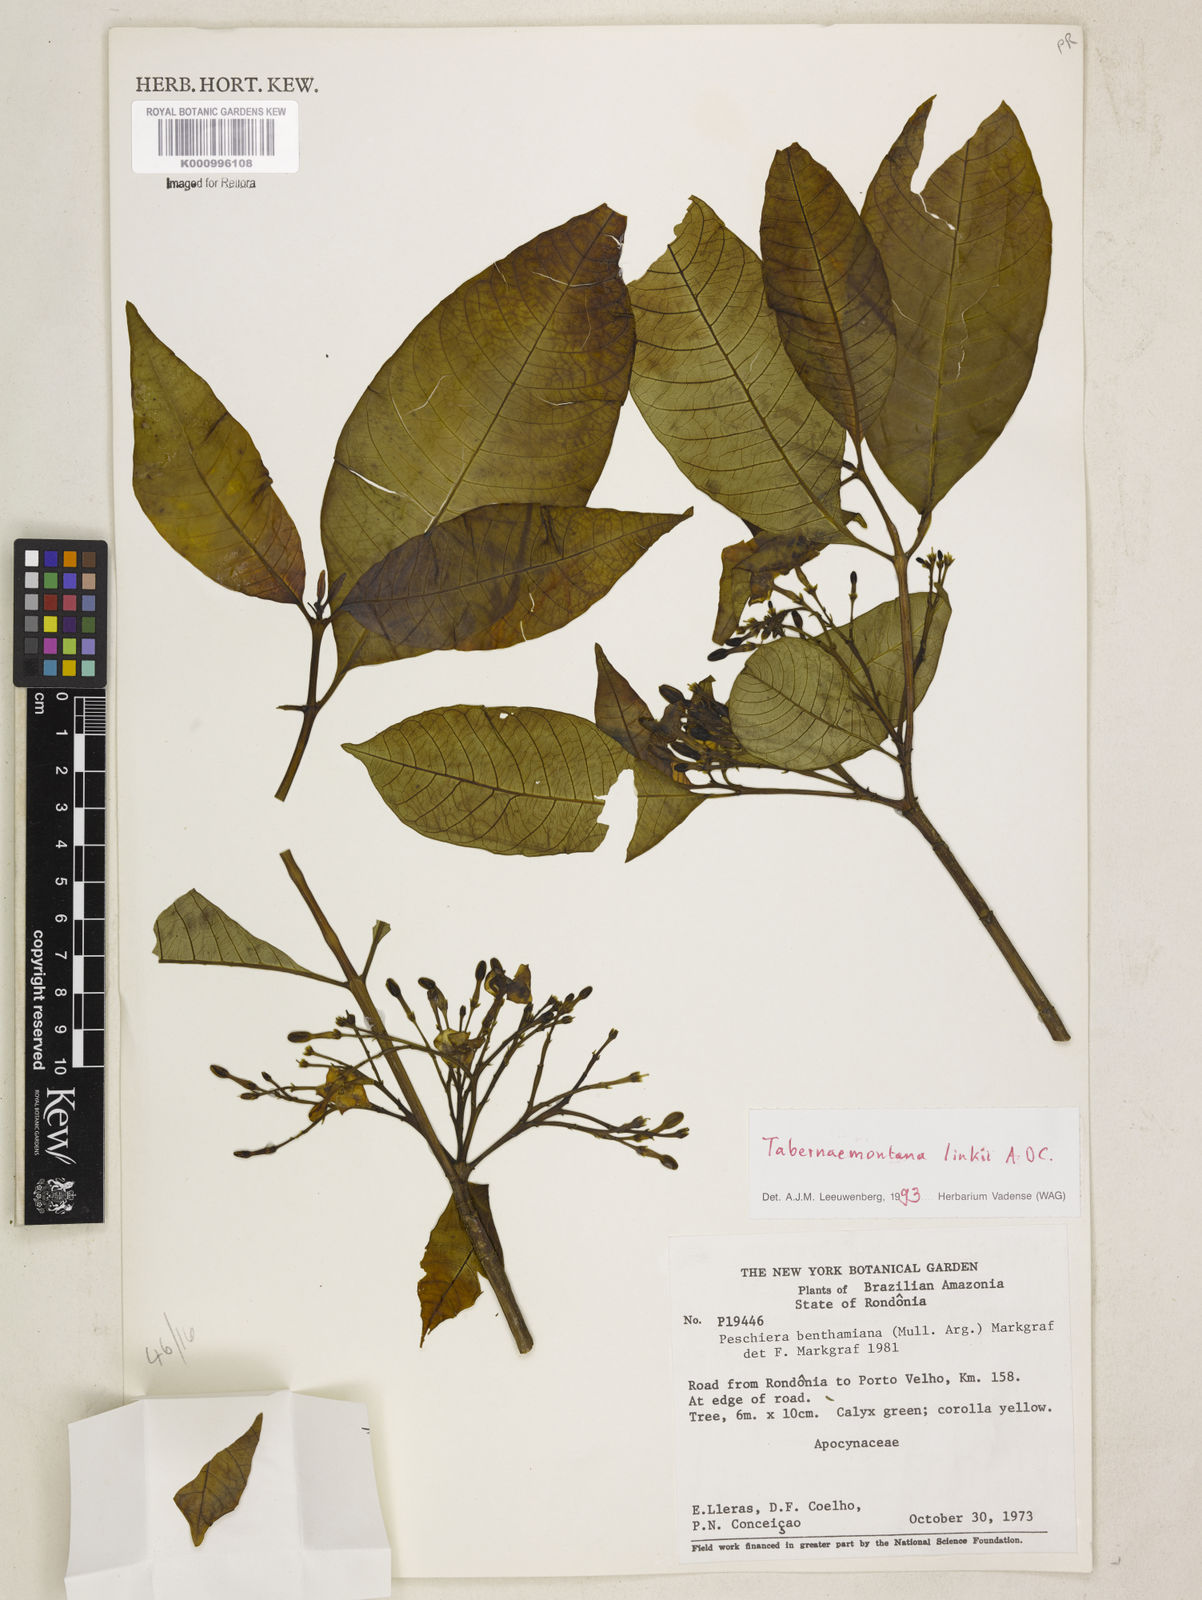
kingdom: Plantae
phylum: Tracheophyta
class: Magnoliopsida
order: Gentianales
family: Apocynaceae
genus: Tabernaemontana
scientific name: Tabernaemontana linkii
